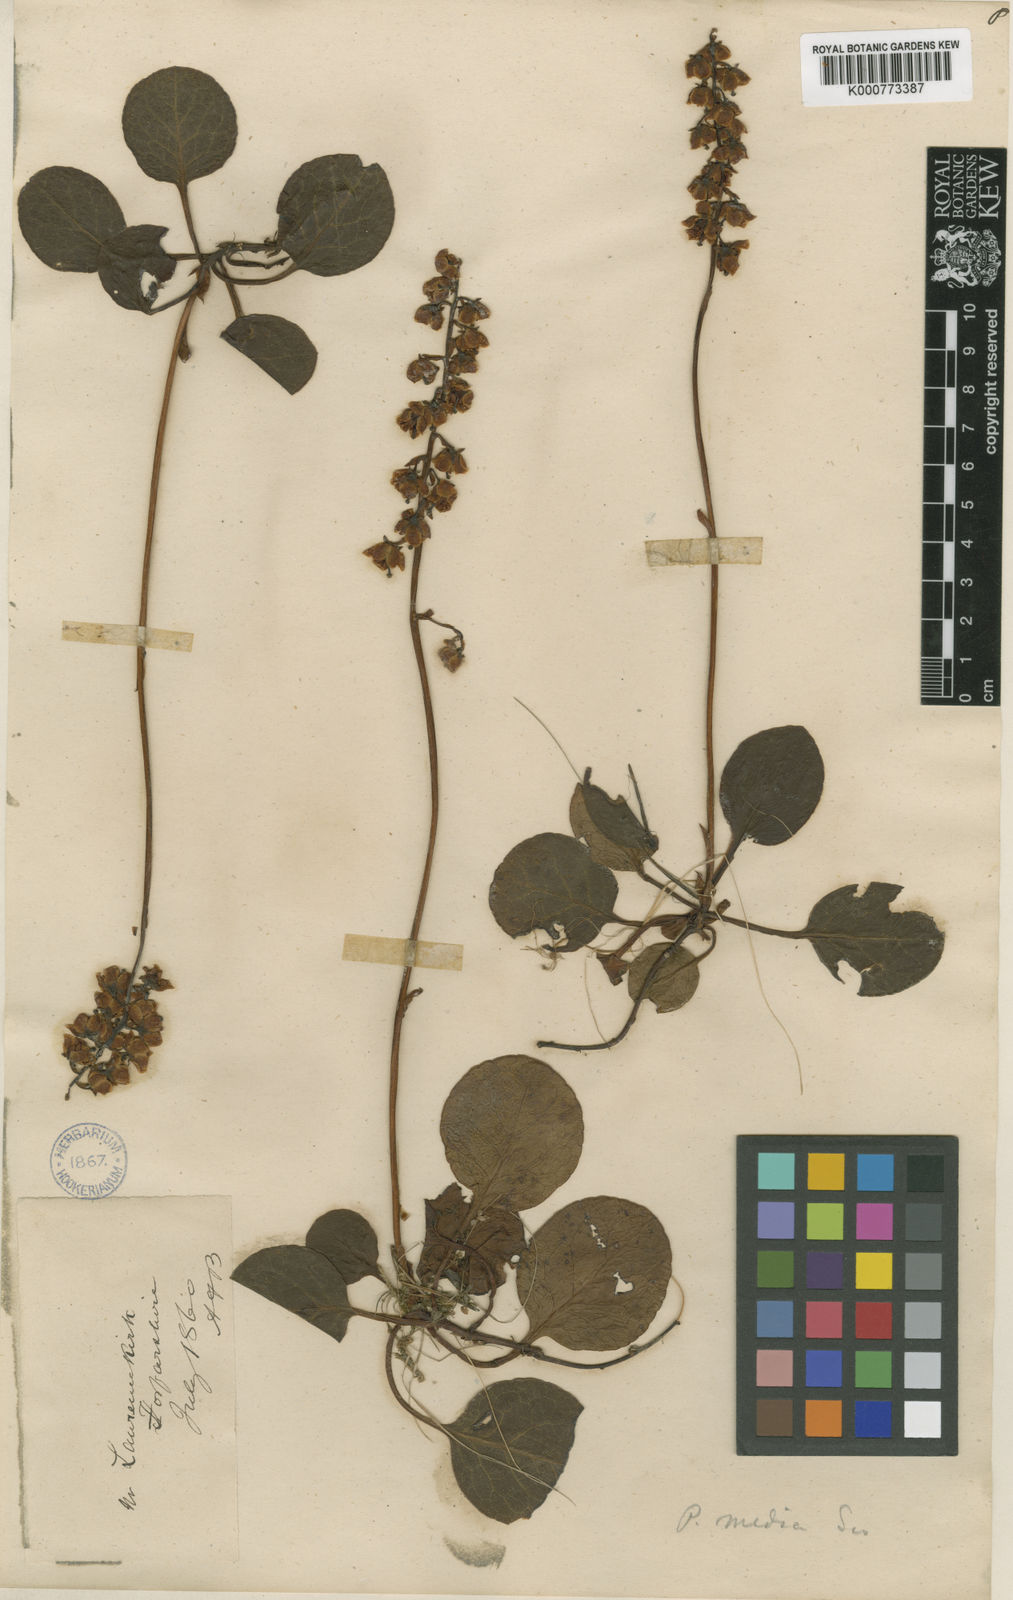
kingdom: Plantae
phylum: Tracheophyta
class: Magnoliopsida
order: Ericales
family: Ericaceae
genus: Pyrola
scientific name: Pyrola media
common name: Intermediate wintergreen
